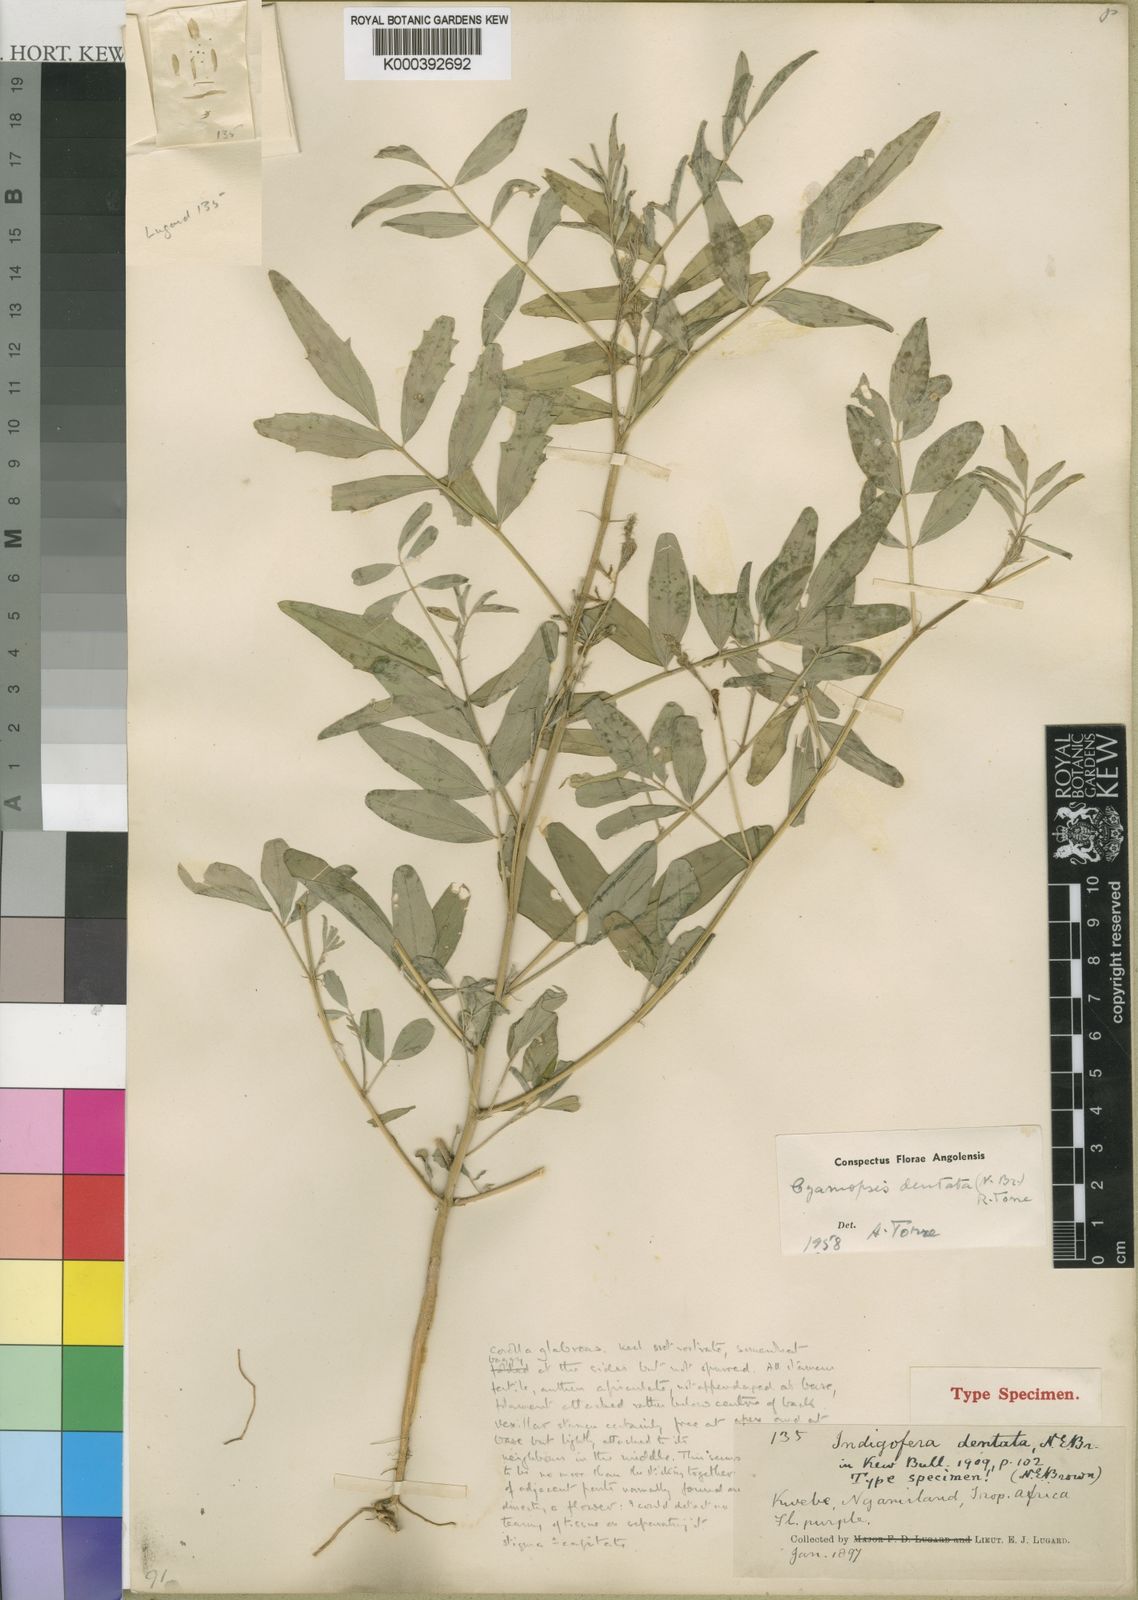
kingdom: Plantae
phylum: Tracheophyta
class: Magnoliopsida
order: Fabales
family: Fabaceae
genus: Cyamopsis
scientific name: Cyamopsis dentata
